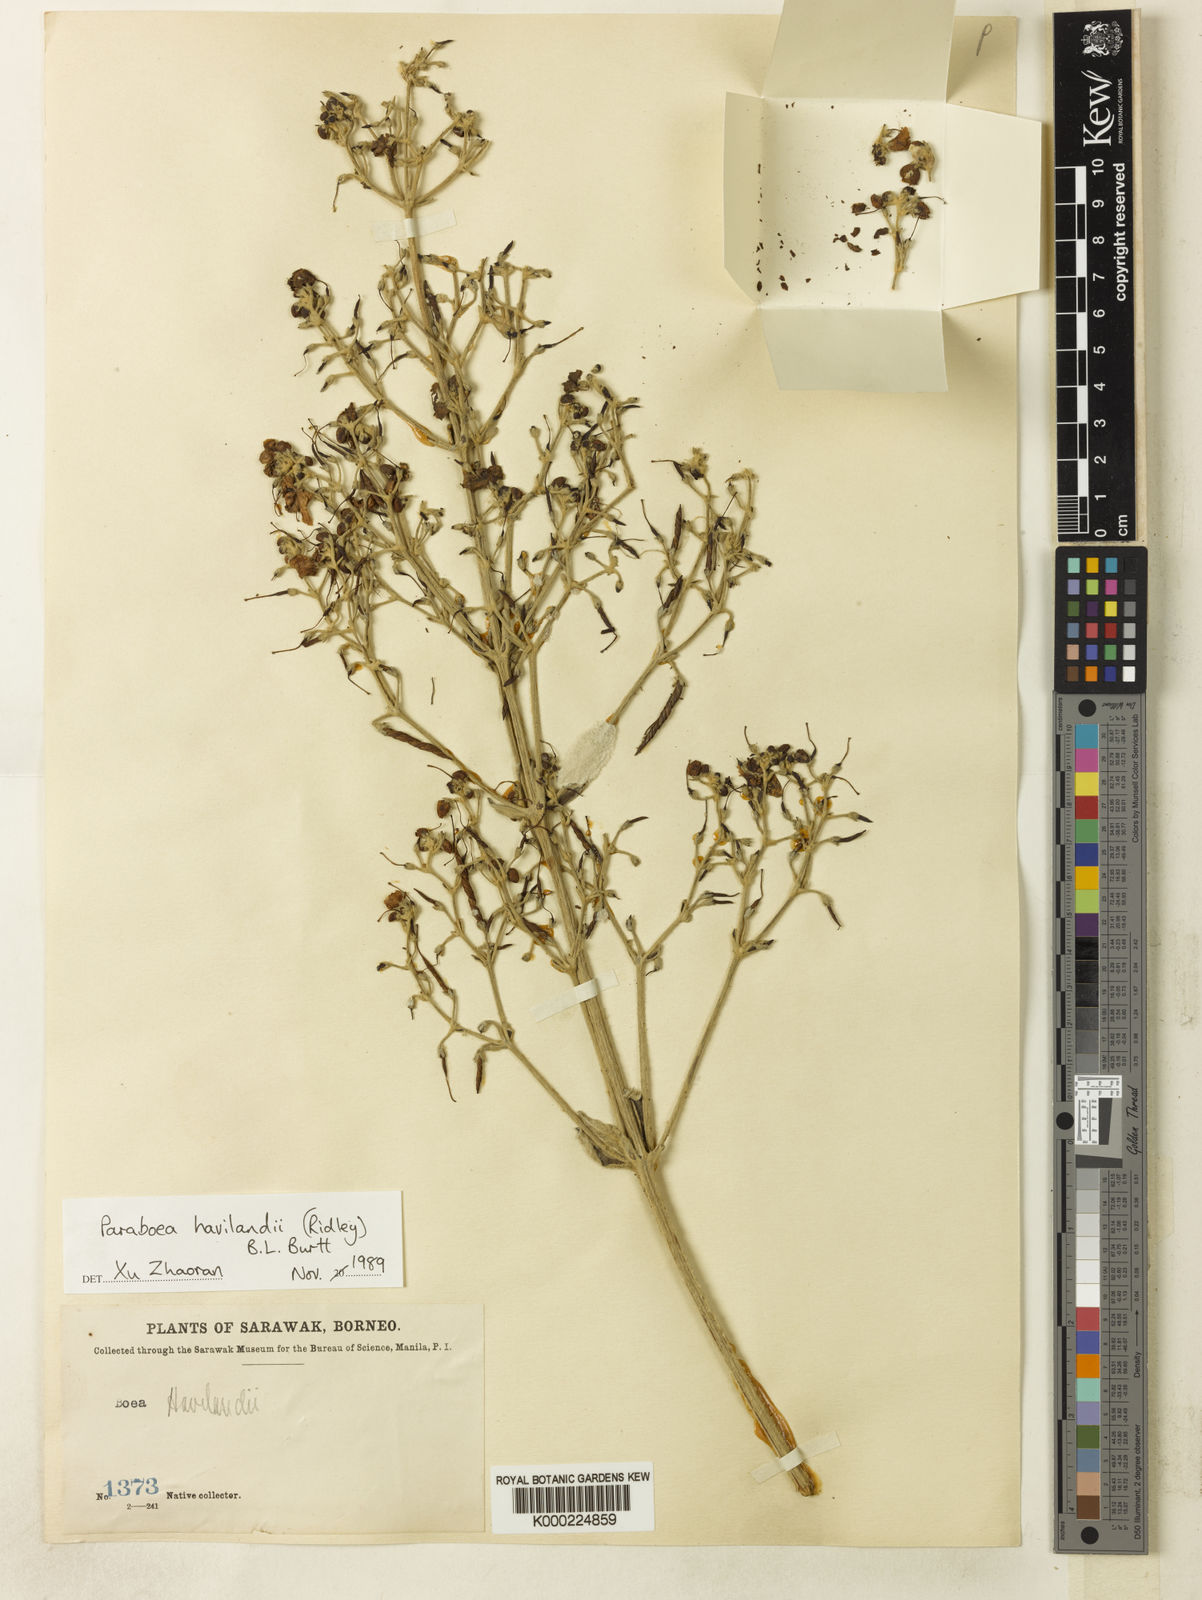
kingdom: Plantae
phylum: Tracheophyta
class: Magnoliopsida
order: Lamiales
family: Gesneriaceae
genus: Paraboea
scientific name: Paraboea havilandii
